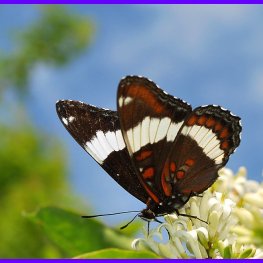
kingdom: Animalia
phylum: Arthropoda
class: Insecta
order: Lepidoptera
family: Nymphalidae
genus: Limenitis
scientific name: Limenitis arthemis
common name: Red-spotted Admiral
